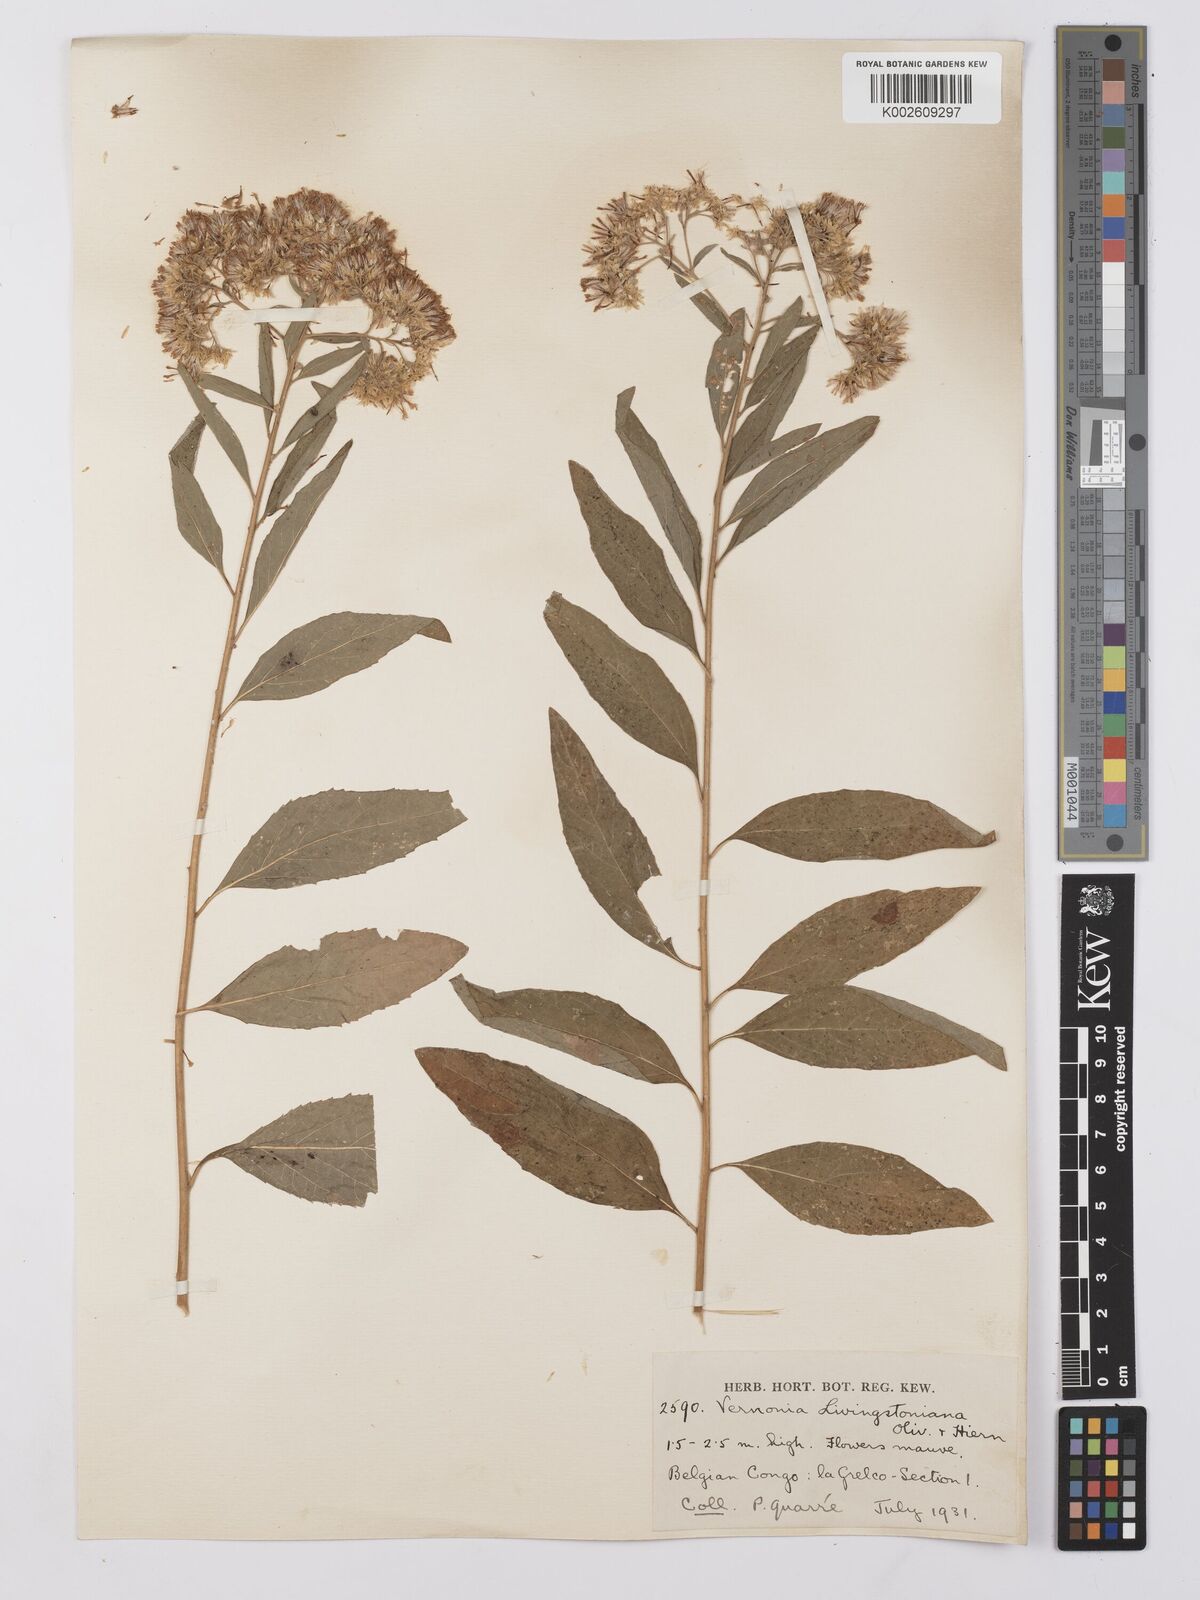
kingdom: Plantae
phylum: Tracheophyta
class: Magnoliopsida
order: Asterales
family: Asteraceae
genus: Gymnanthemum
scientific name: Gymnanthemum thomsonianum
